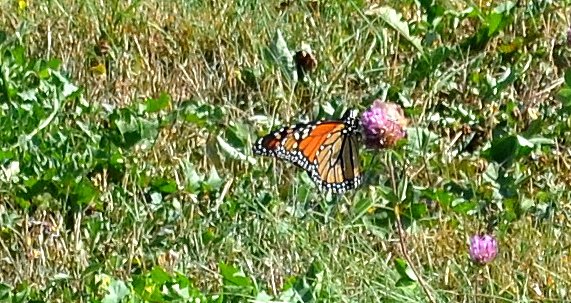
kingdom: Animalia
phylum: Arthropoda
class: Insecta
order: Lepidoptera
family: Nymphalidae
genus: Danaus
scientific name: Danaus plexippus
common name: Monarch
